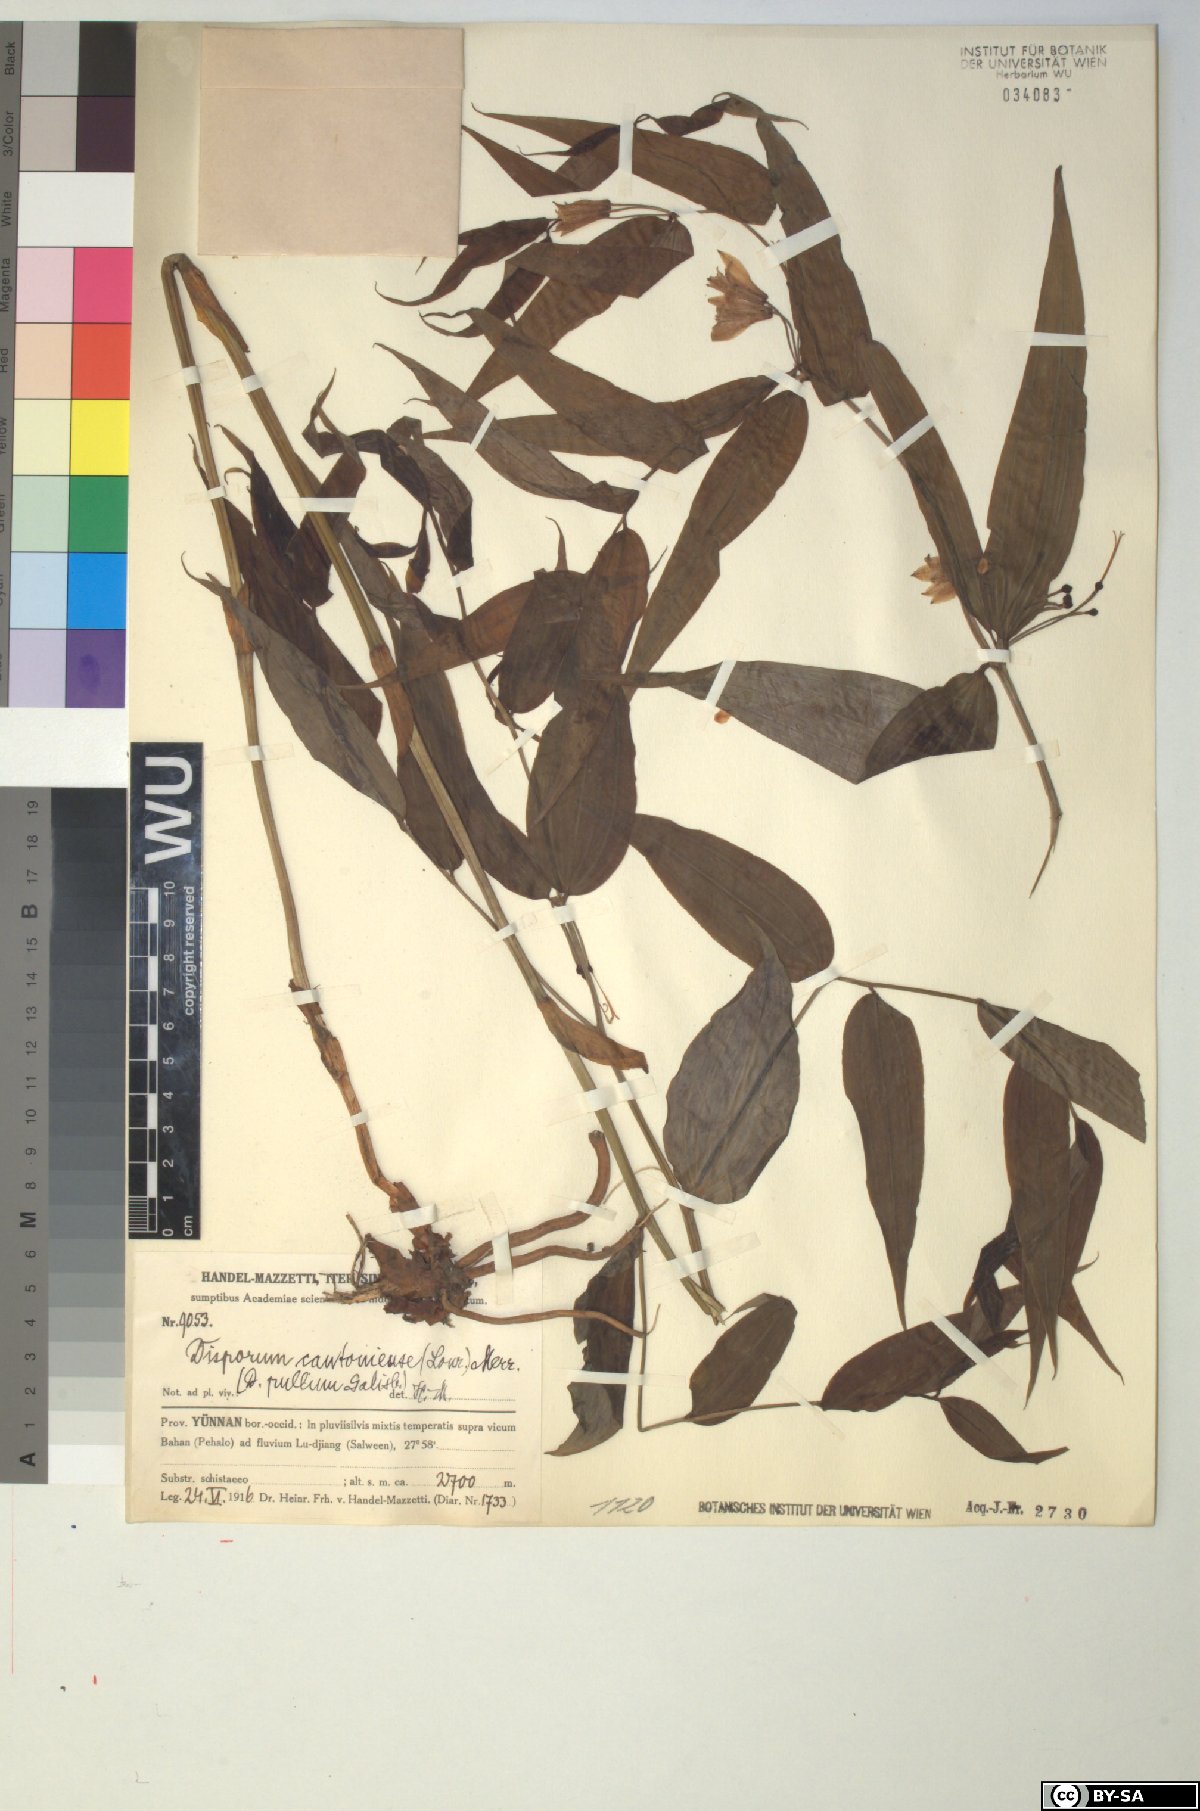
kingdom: Plantae
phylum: Tracheophyta
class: Liliopsida
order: Liliales
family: Colchicaceae
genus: Disporum
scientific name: Disporum cantoniense
